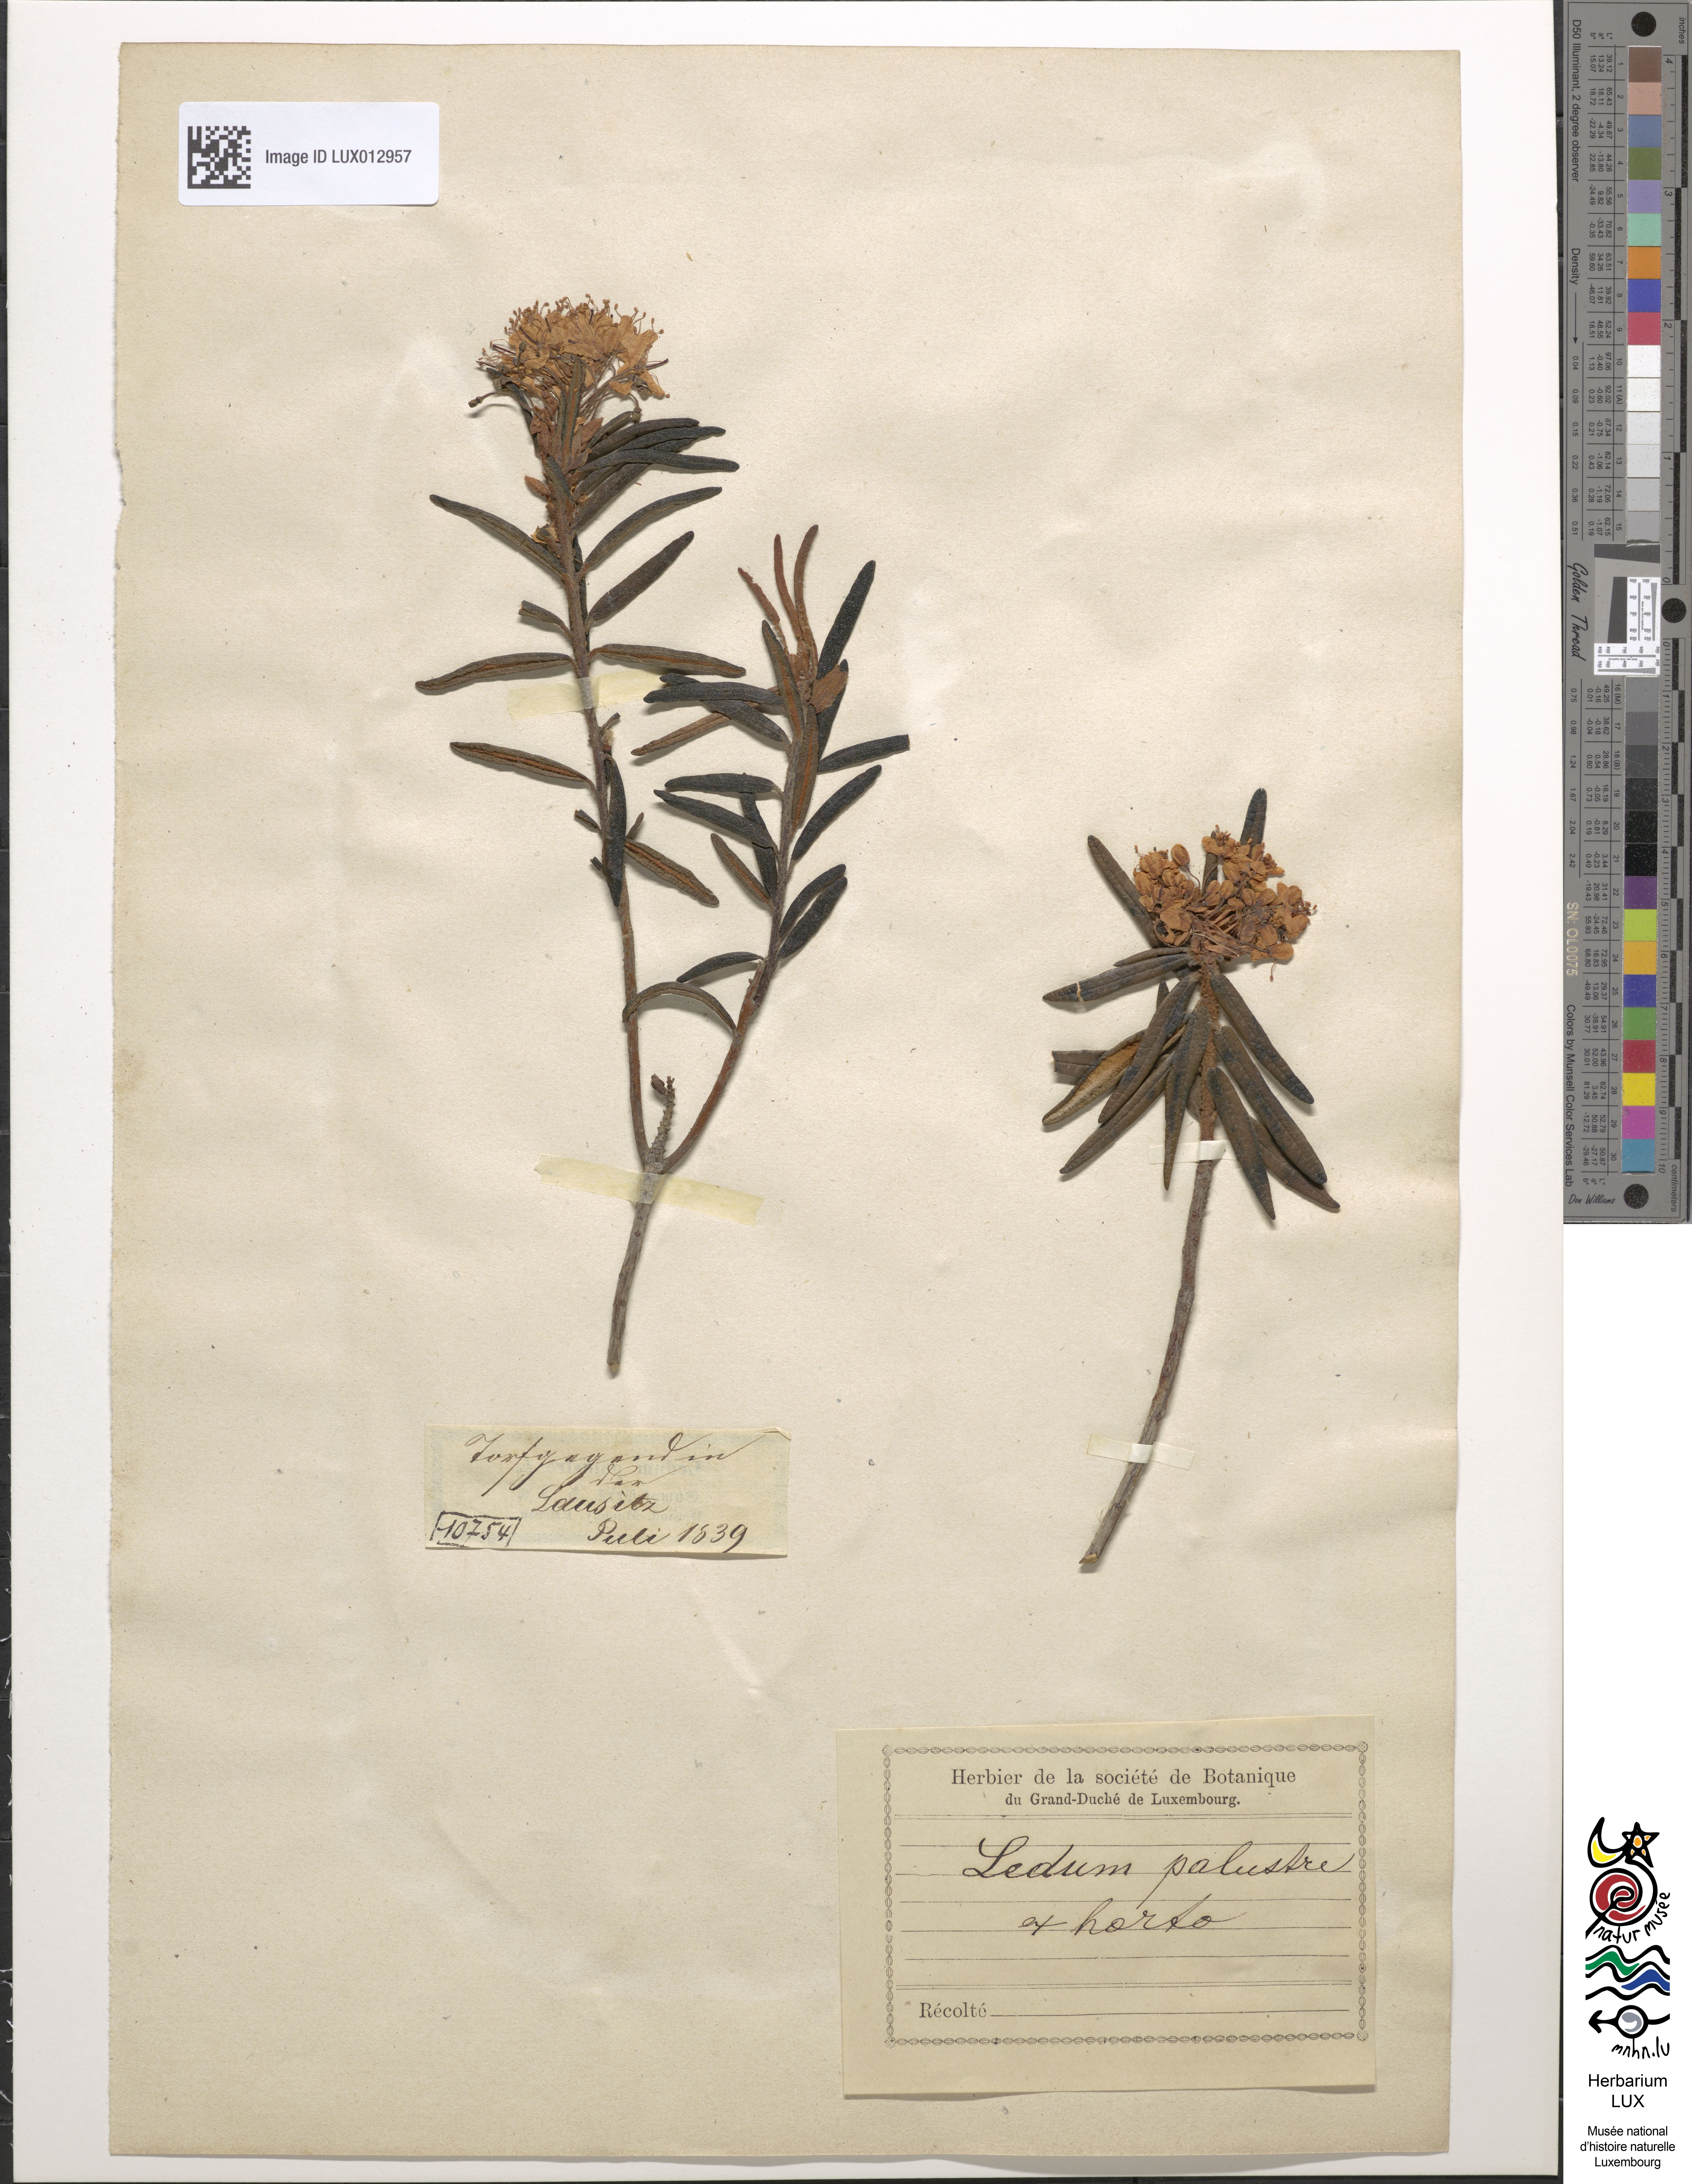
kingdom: Plantae
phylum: Tracheophyta
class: Magnoliopsida
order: Ericales
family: Ericaceae
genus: Rhododendron
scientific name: Rhododendron tomentosum
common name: Marsh labrador tea
